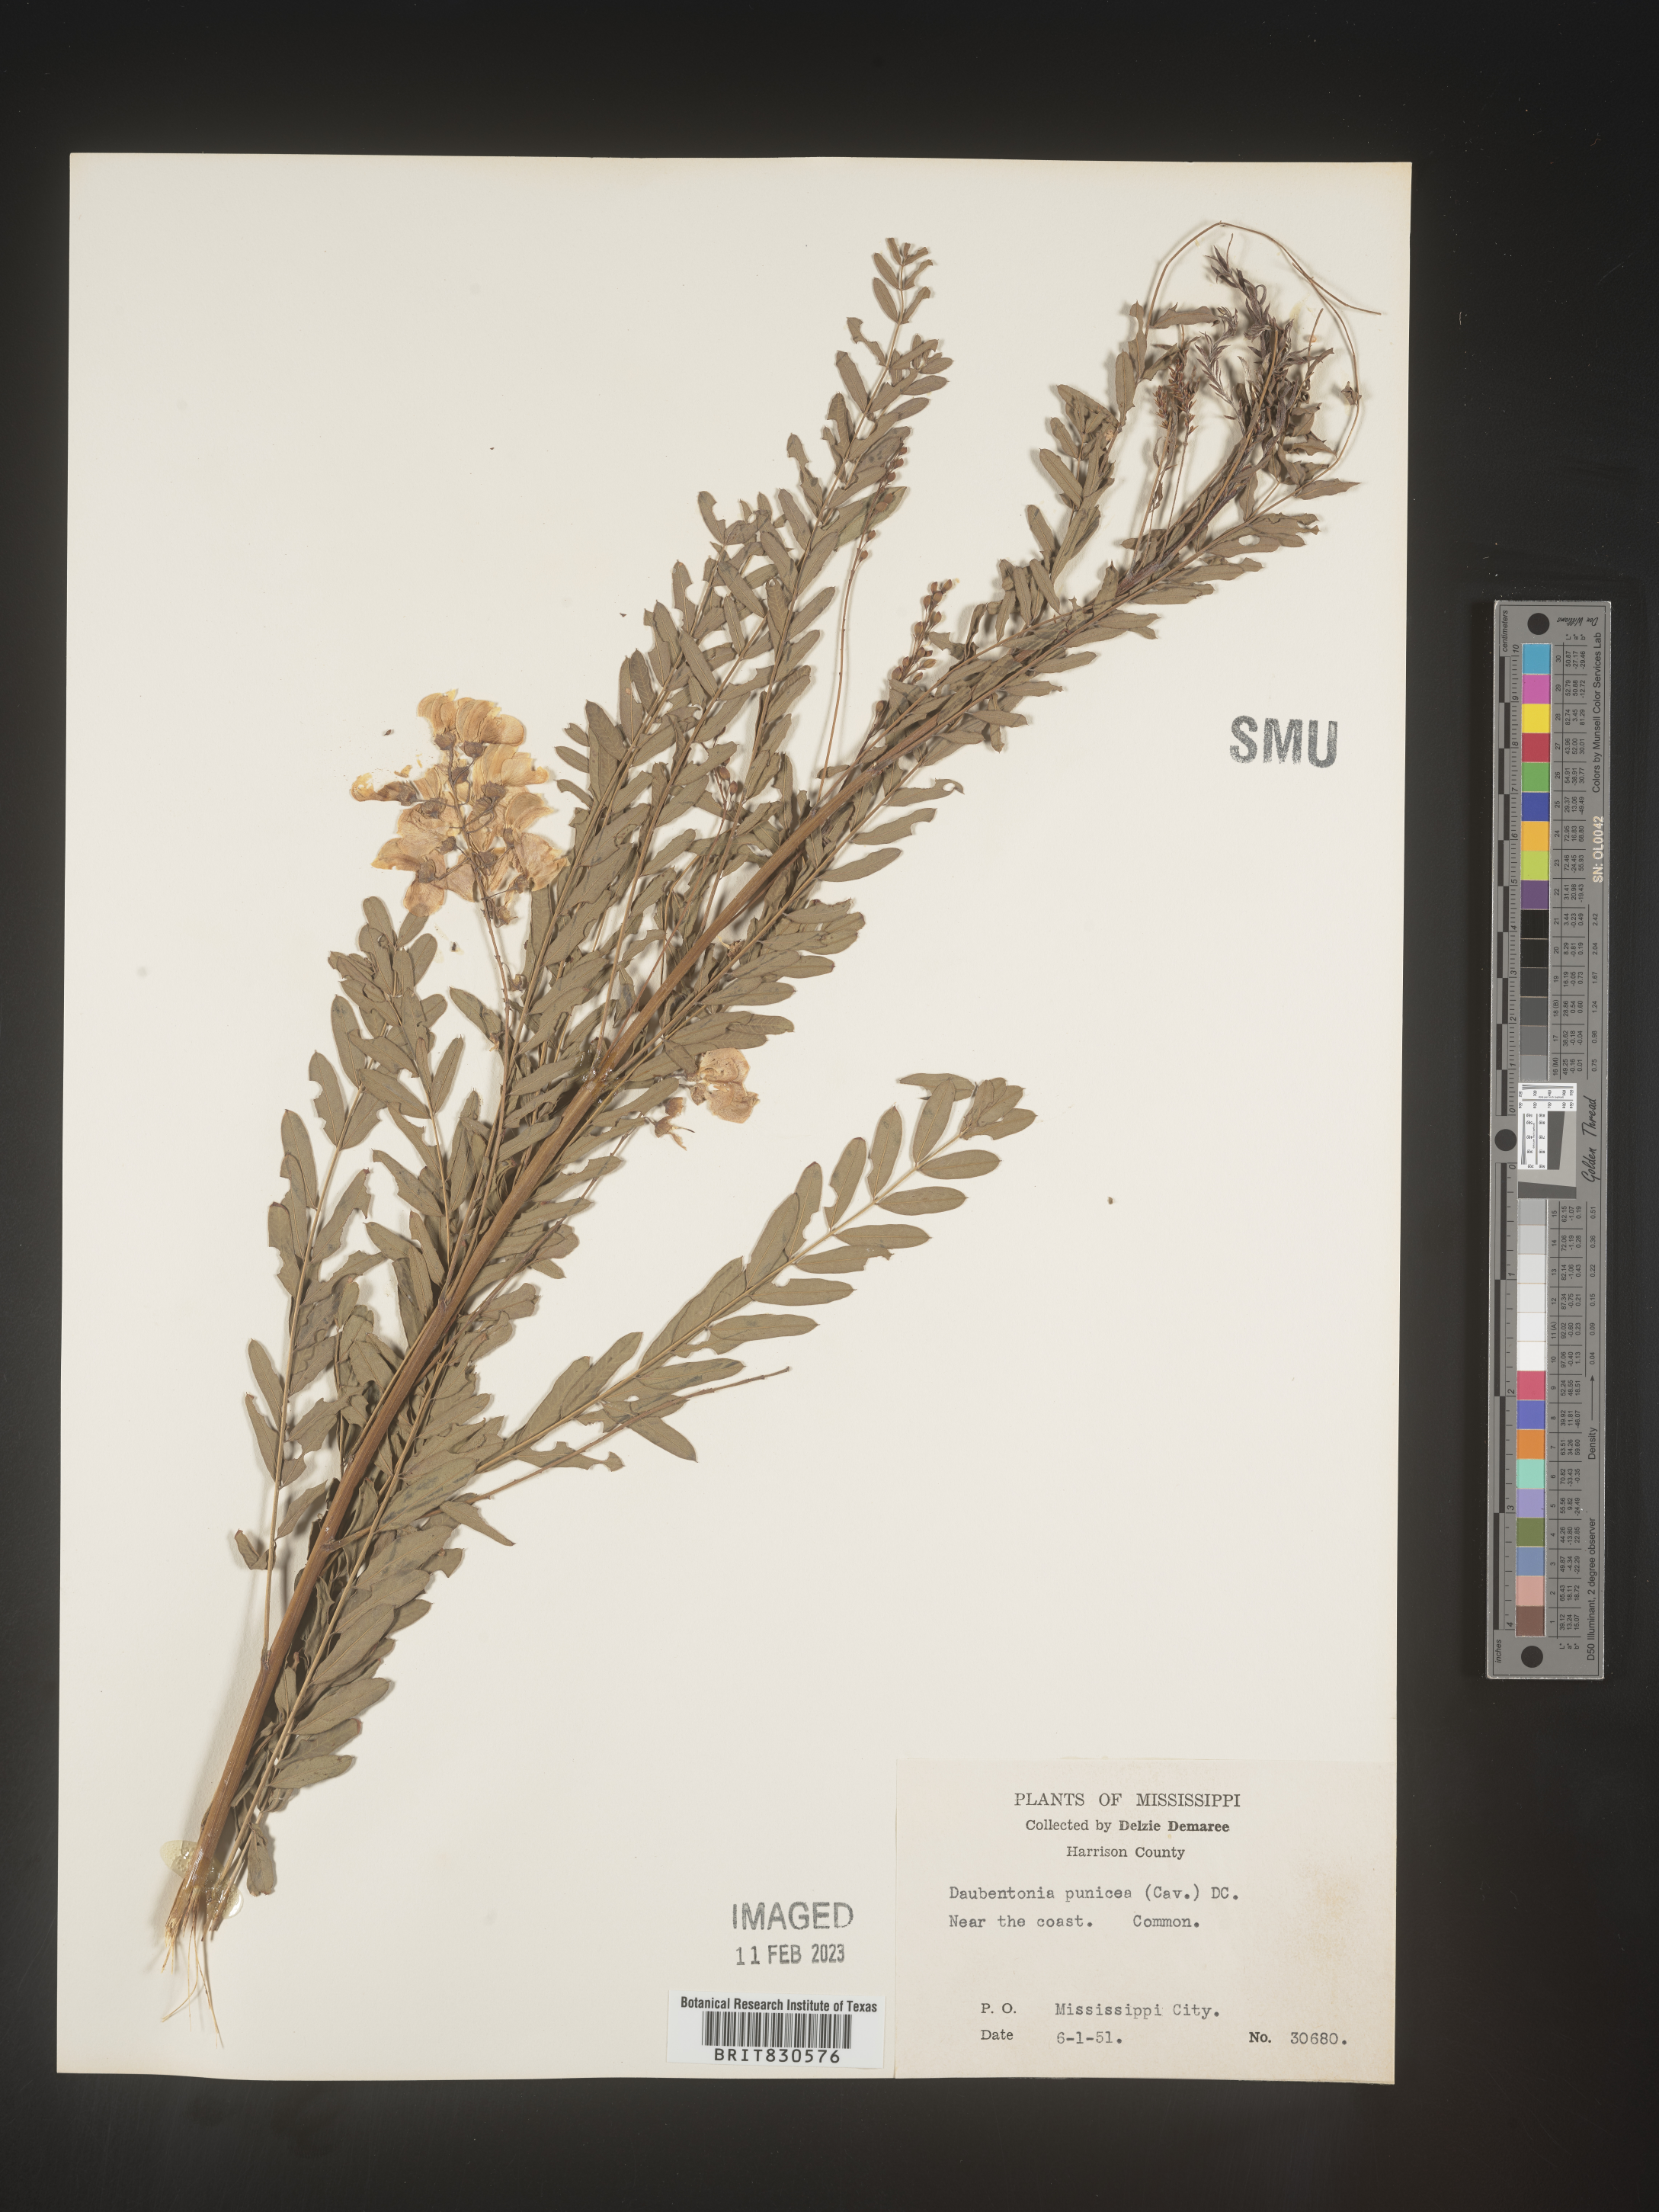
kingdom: Plantae
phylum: Tracheophyta
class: Magnoliopsida
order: Fabales
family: Fabaceae
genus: Sesbania
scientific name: Sesbania drummondii
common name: Poison-bean
